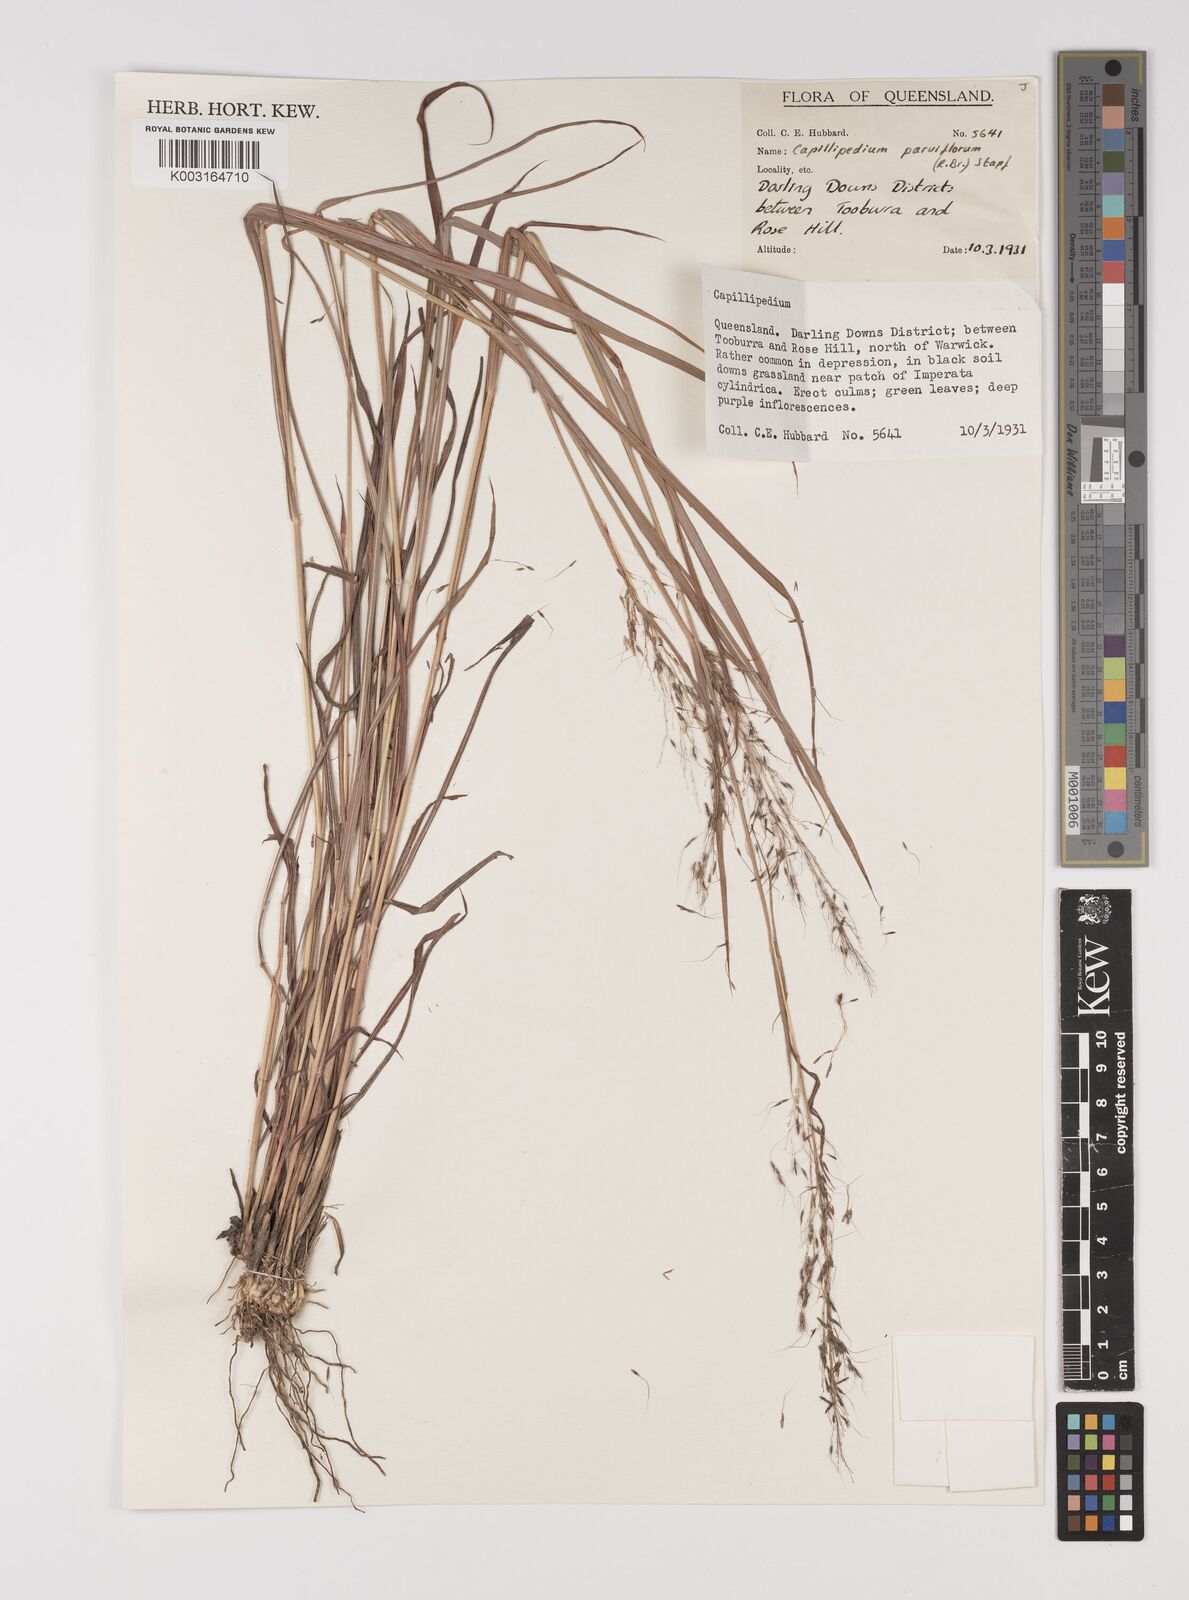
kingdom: Plantae
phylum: Tracheophyta
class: Liliopsida
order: Poales
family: Poaceae
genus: Capillipedium
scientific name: Capillipedium parviflorum
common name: Golden-beard
